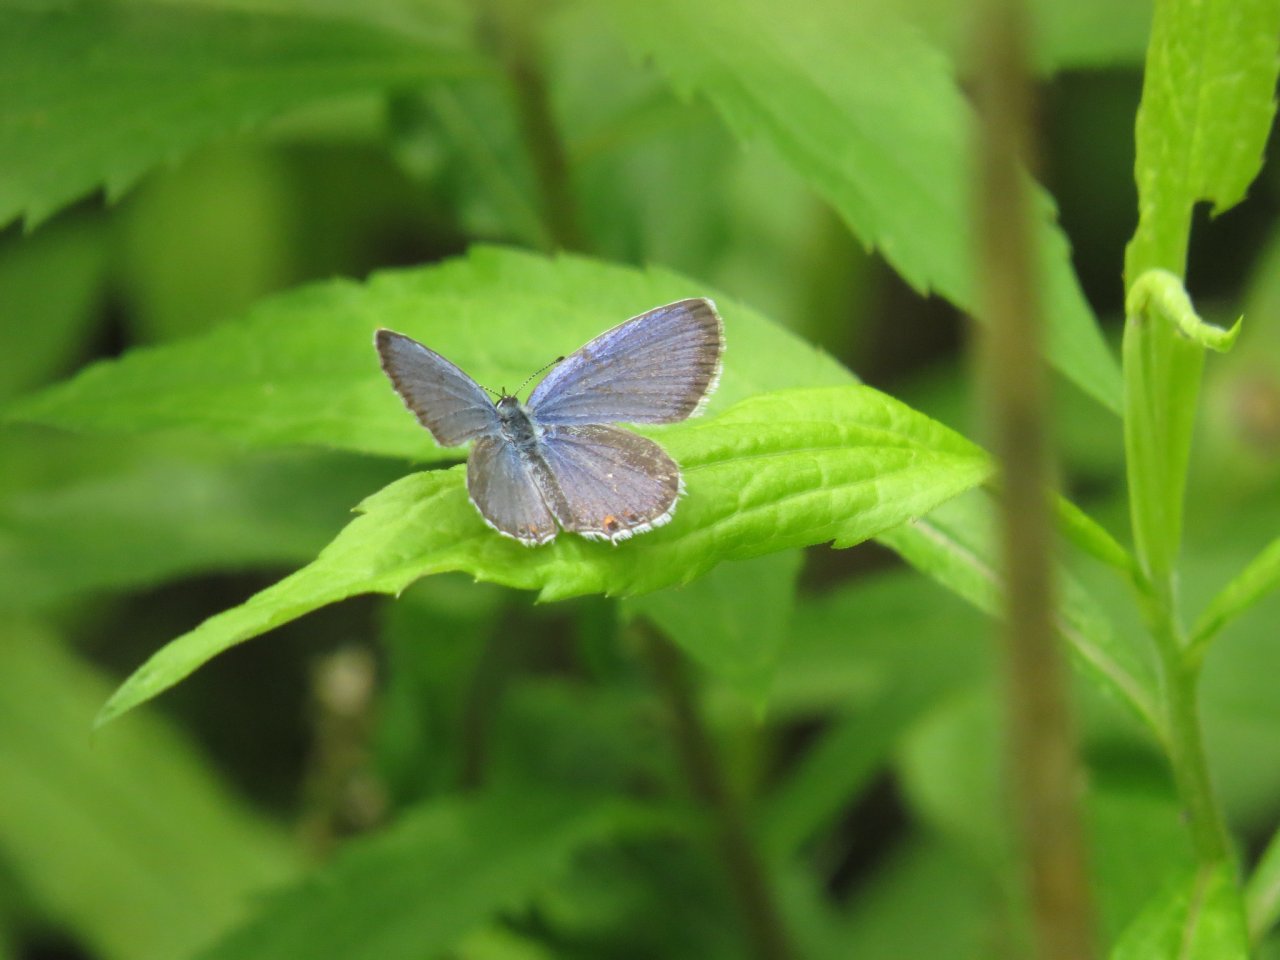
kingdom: Animalia
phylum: Arthropoda
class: Insecta
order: Lepidoptera
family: Lycaenidae
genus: Elkalyce
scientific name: Elkalyce comyntas
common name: Eastern Tailed-Blue
